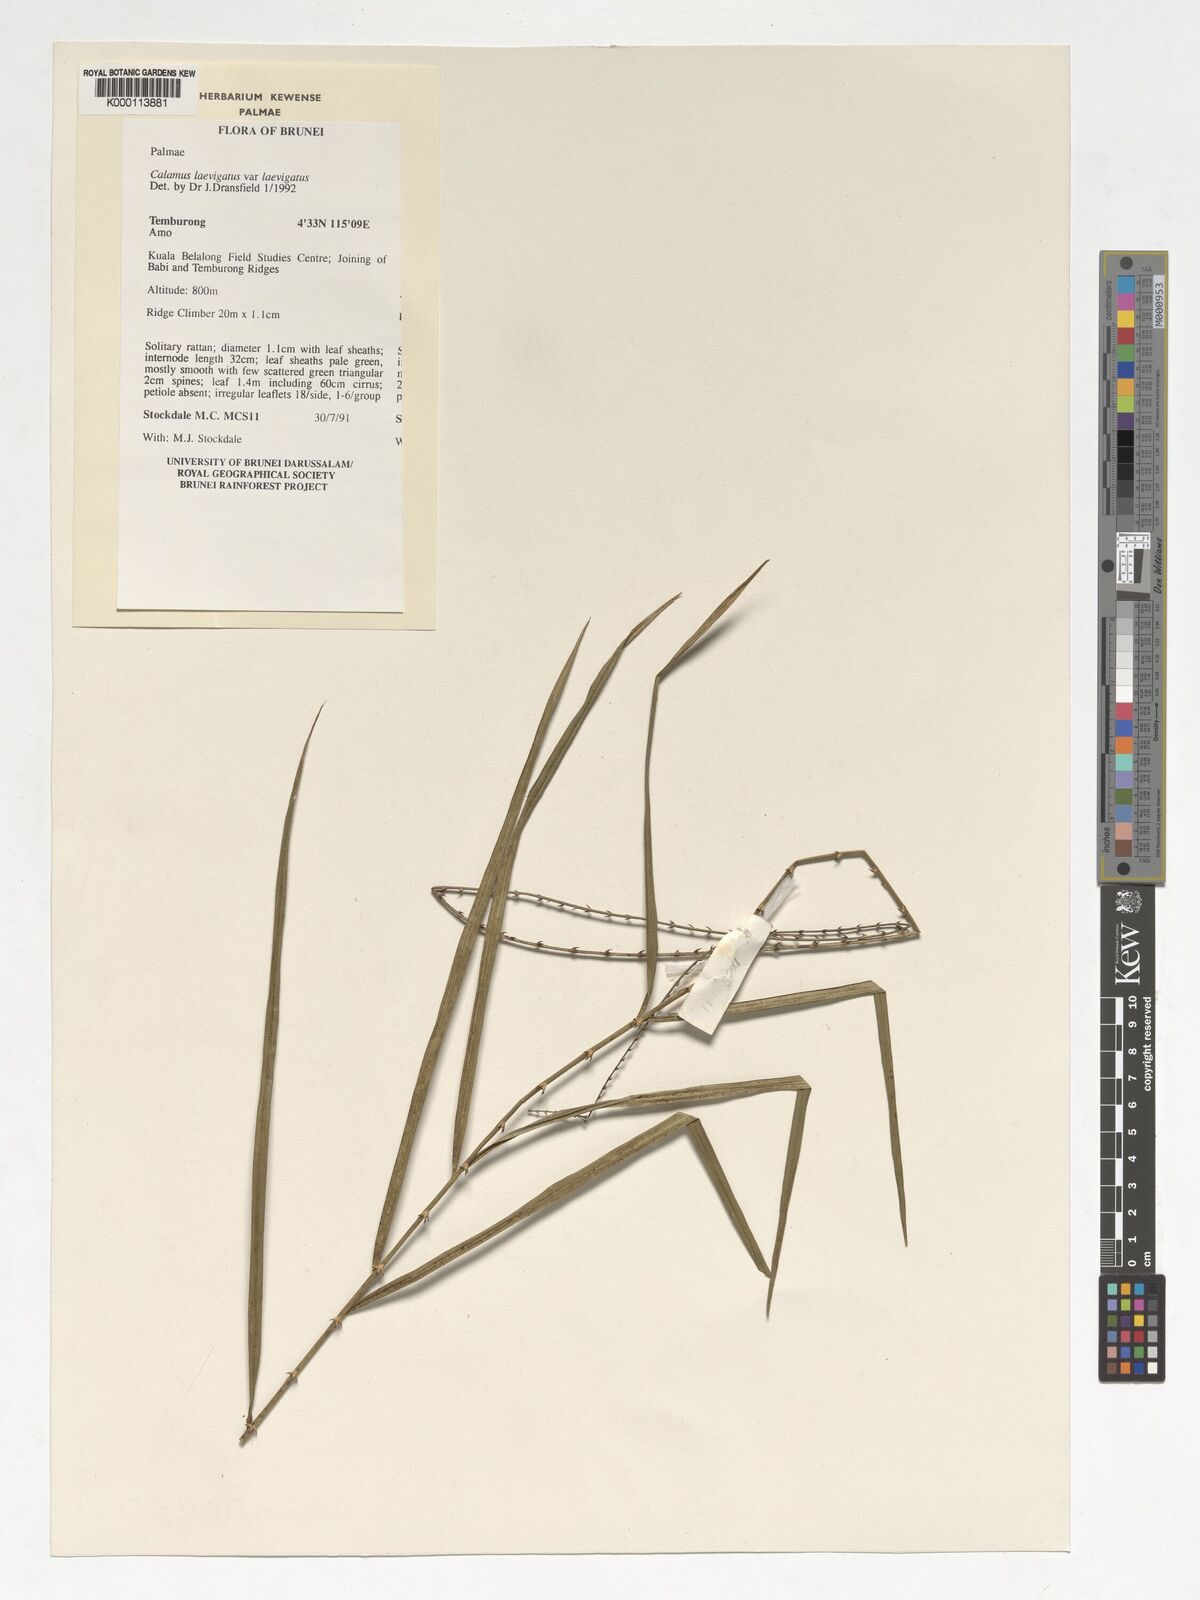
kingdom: Plantae
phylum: Tracheophyta
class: Liliopsida
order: Arecales
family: Arecaceae
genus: Calamus
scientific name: Calamus
